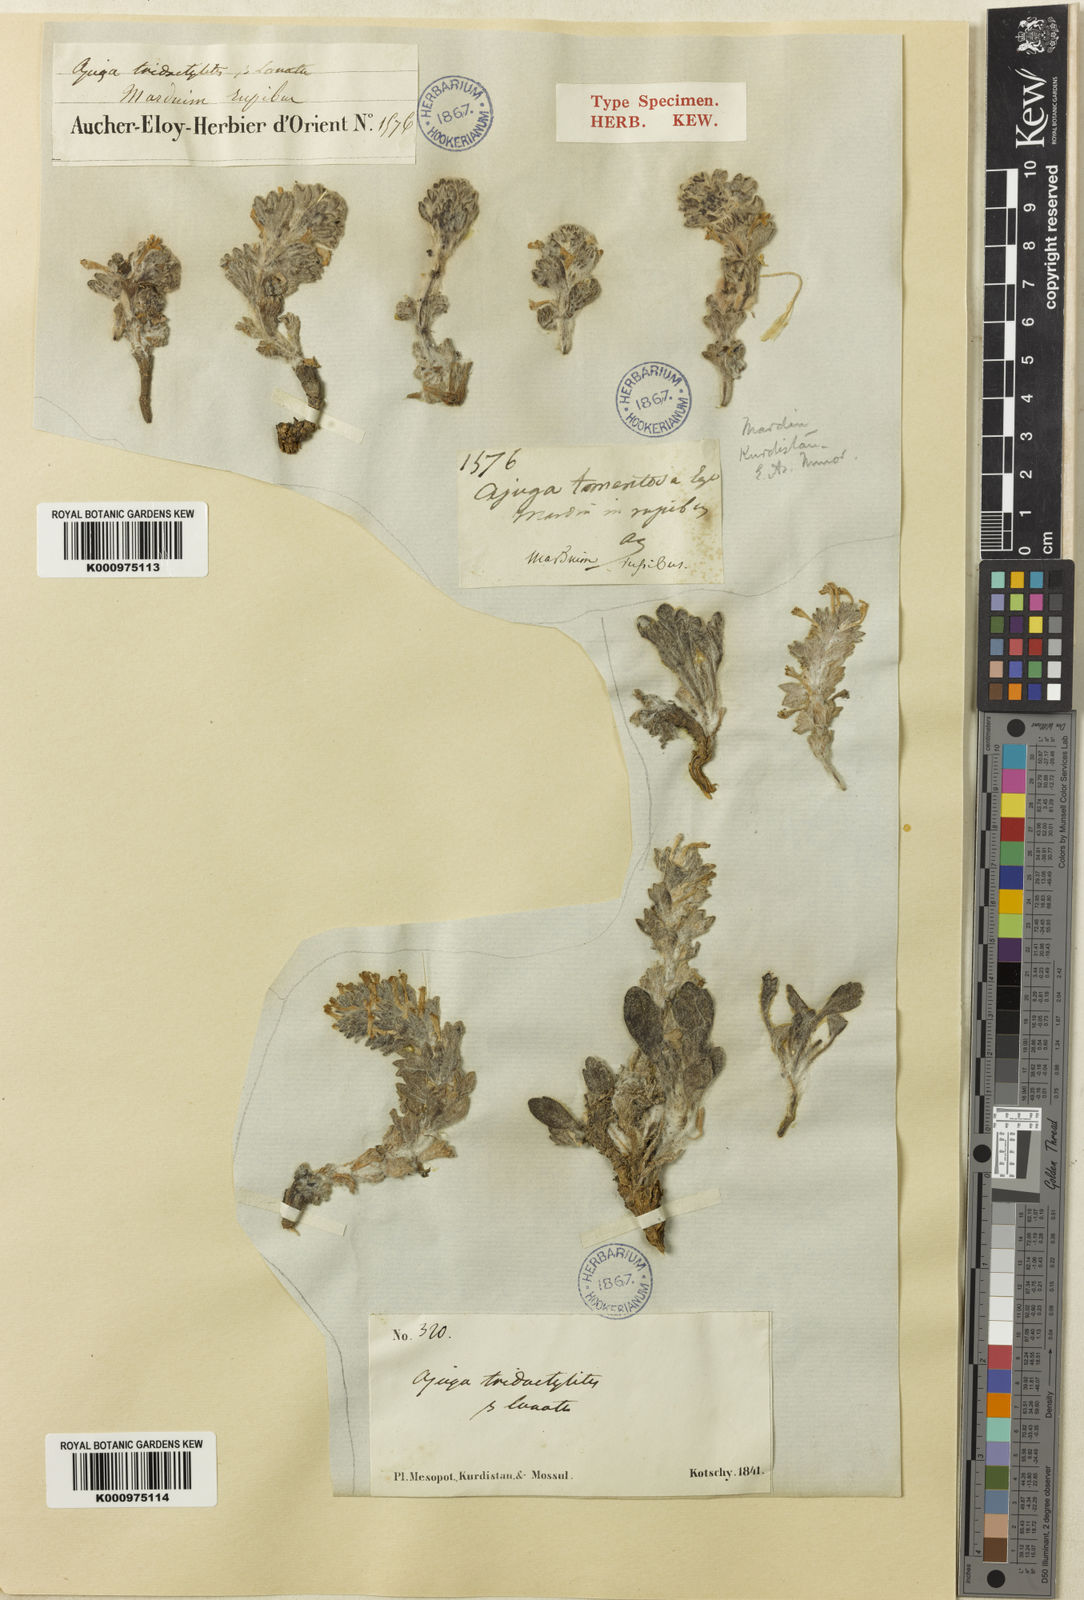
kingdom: Plantae
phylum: Tracheophyta
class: Magnoliopsida
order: Lamiales
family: Lamiaceae
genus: Ajuga
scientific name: Ajuga vestita
